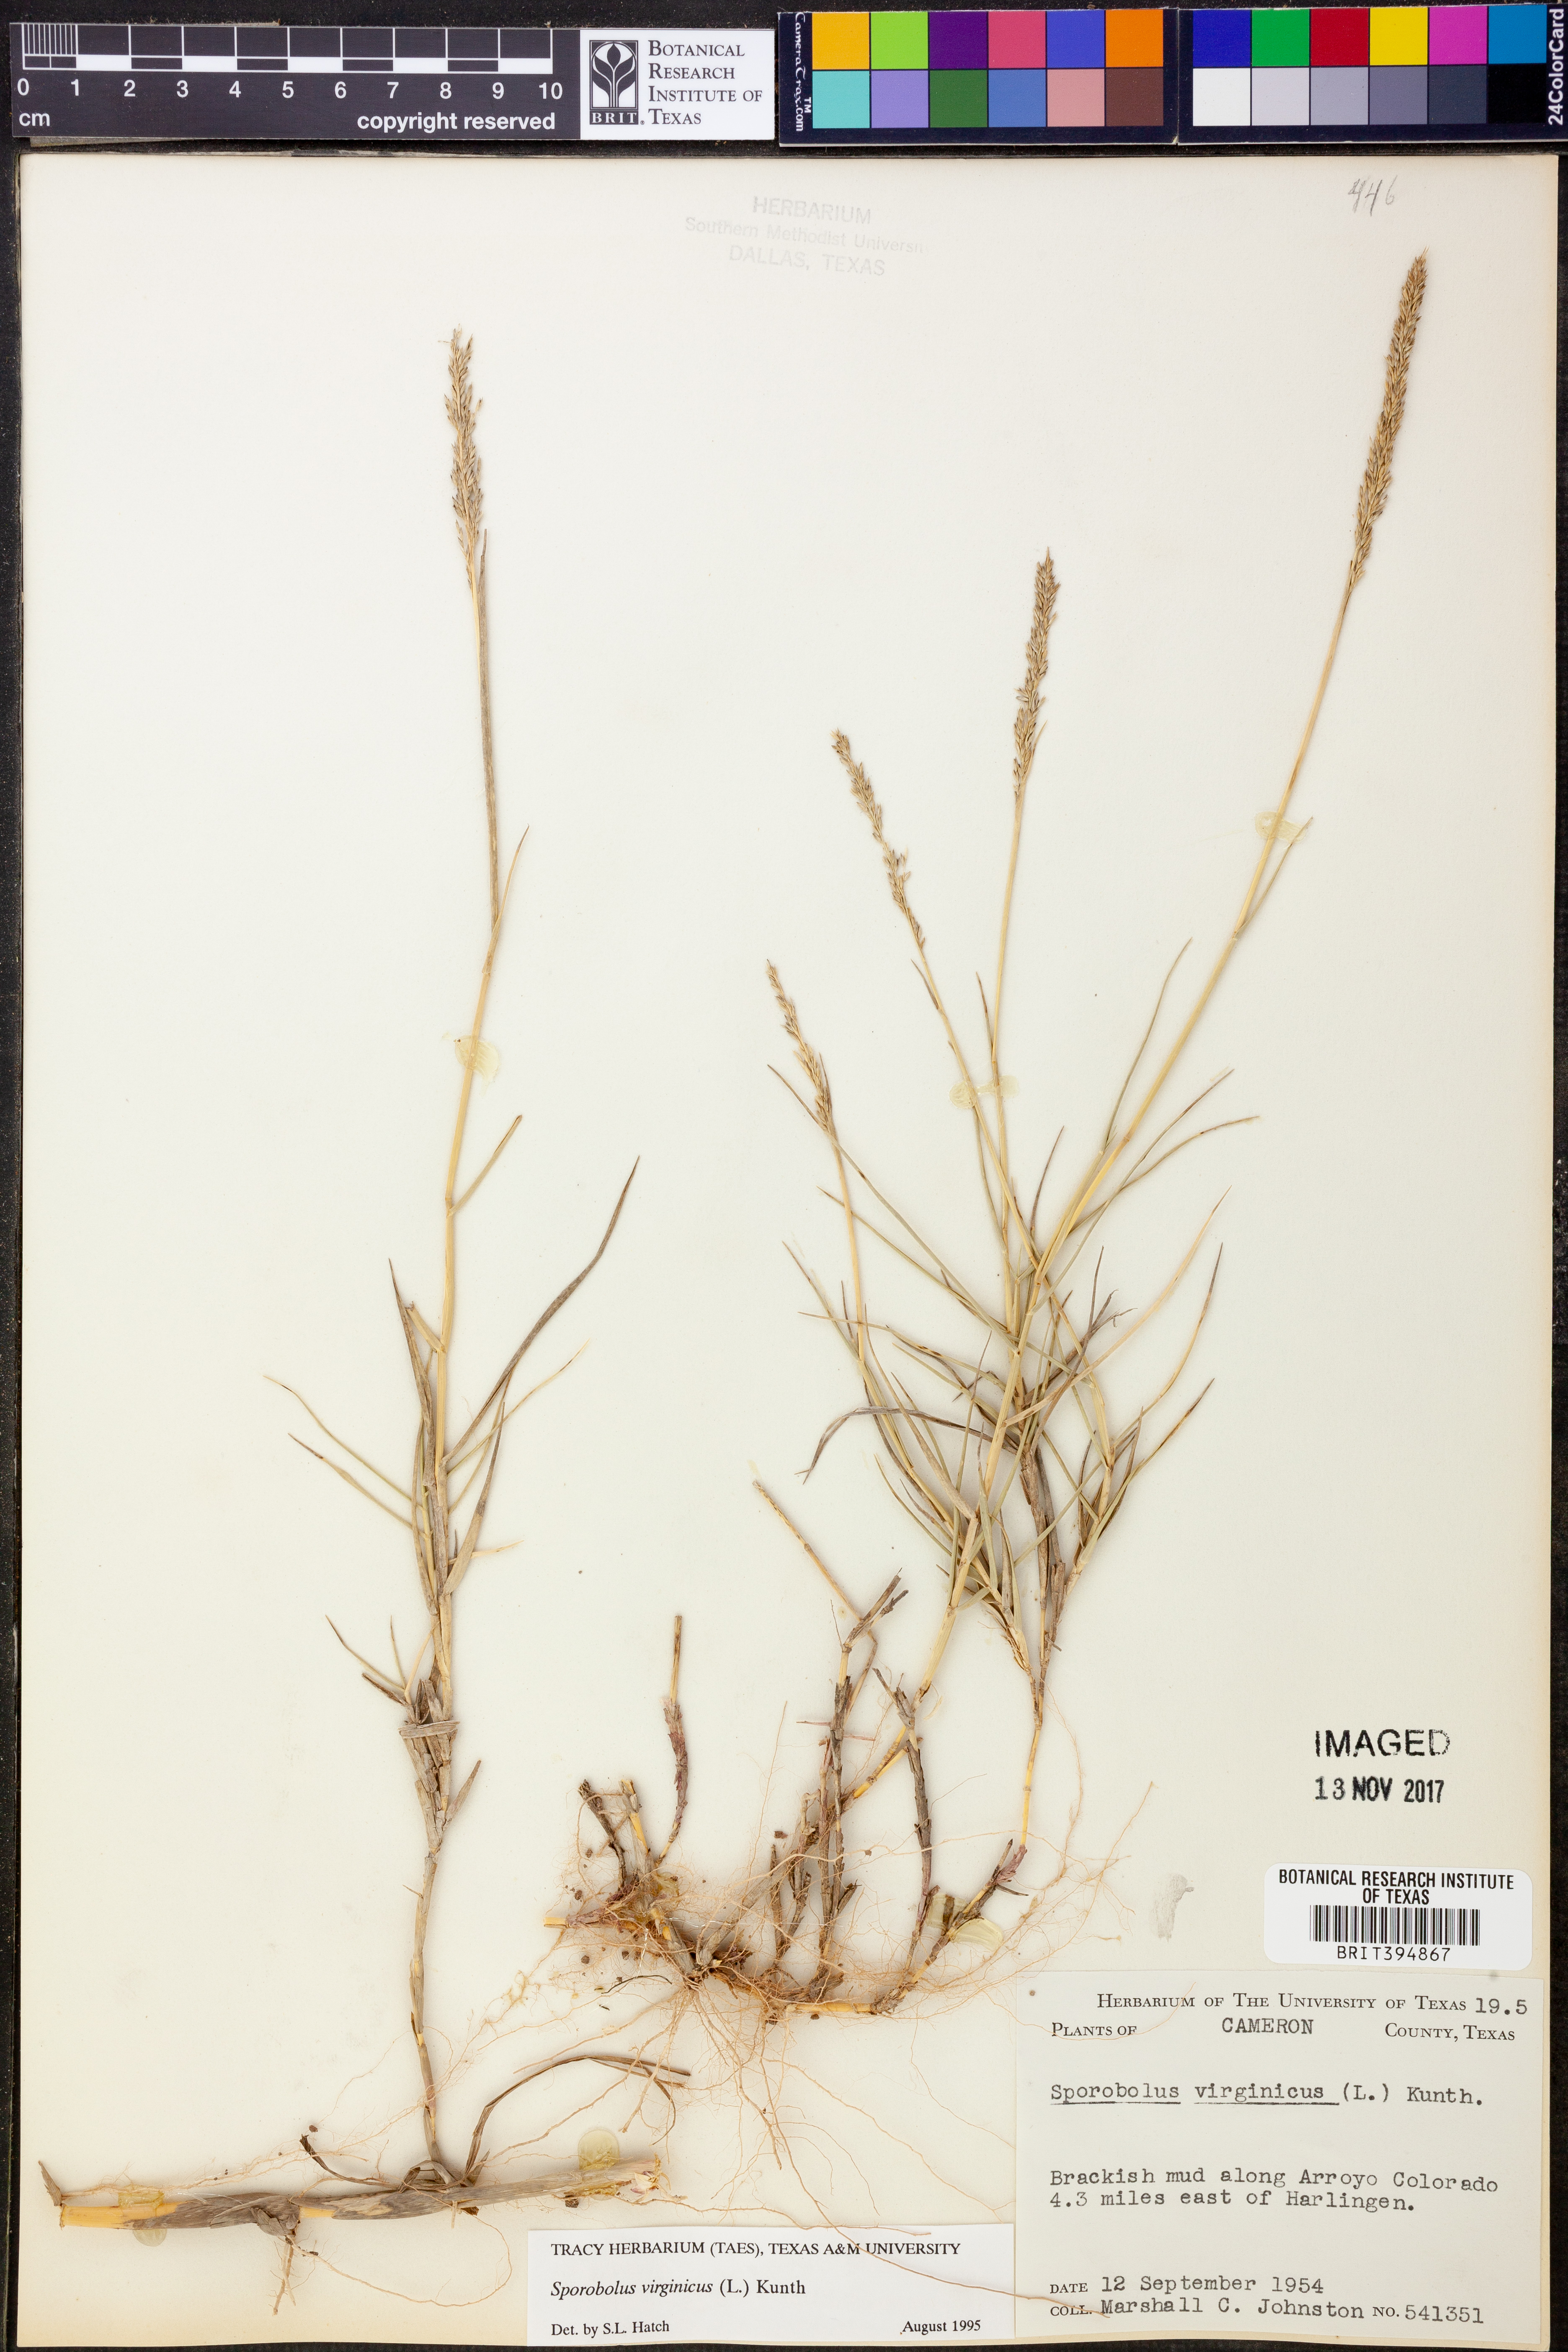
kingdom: Plantae
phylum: Tracheophyta
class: Liliopsida
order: Poales
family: Poaceae
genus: Sporobolus
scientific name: Sporobolus virginicus
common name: Beach dropseed
